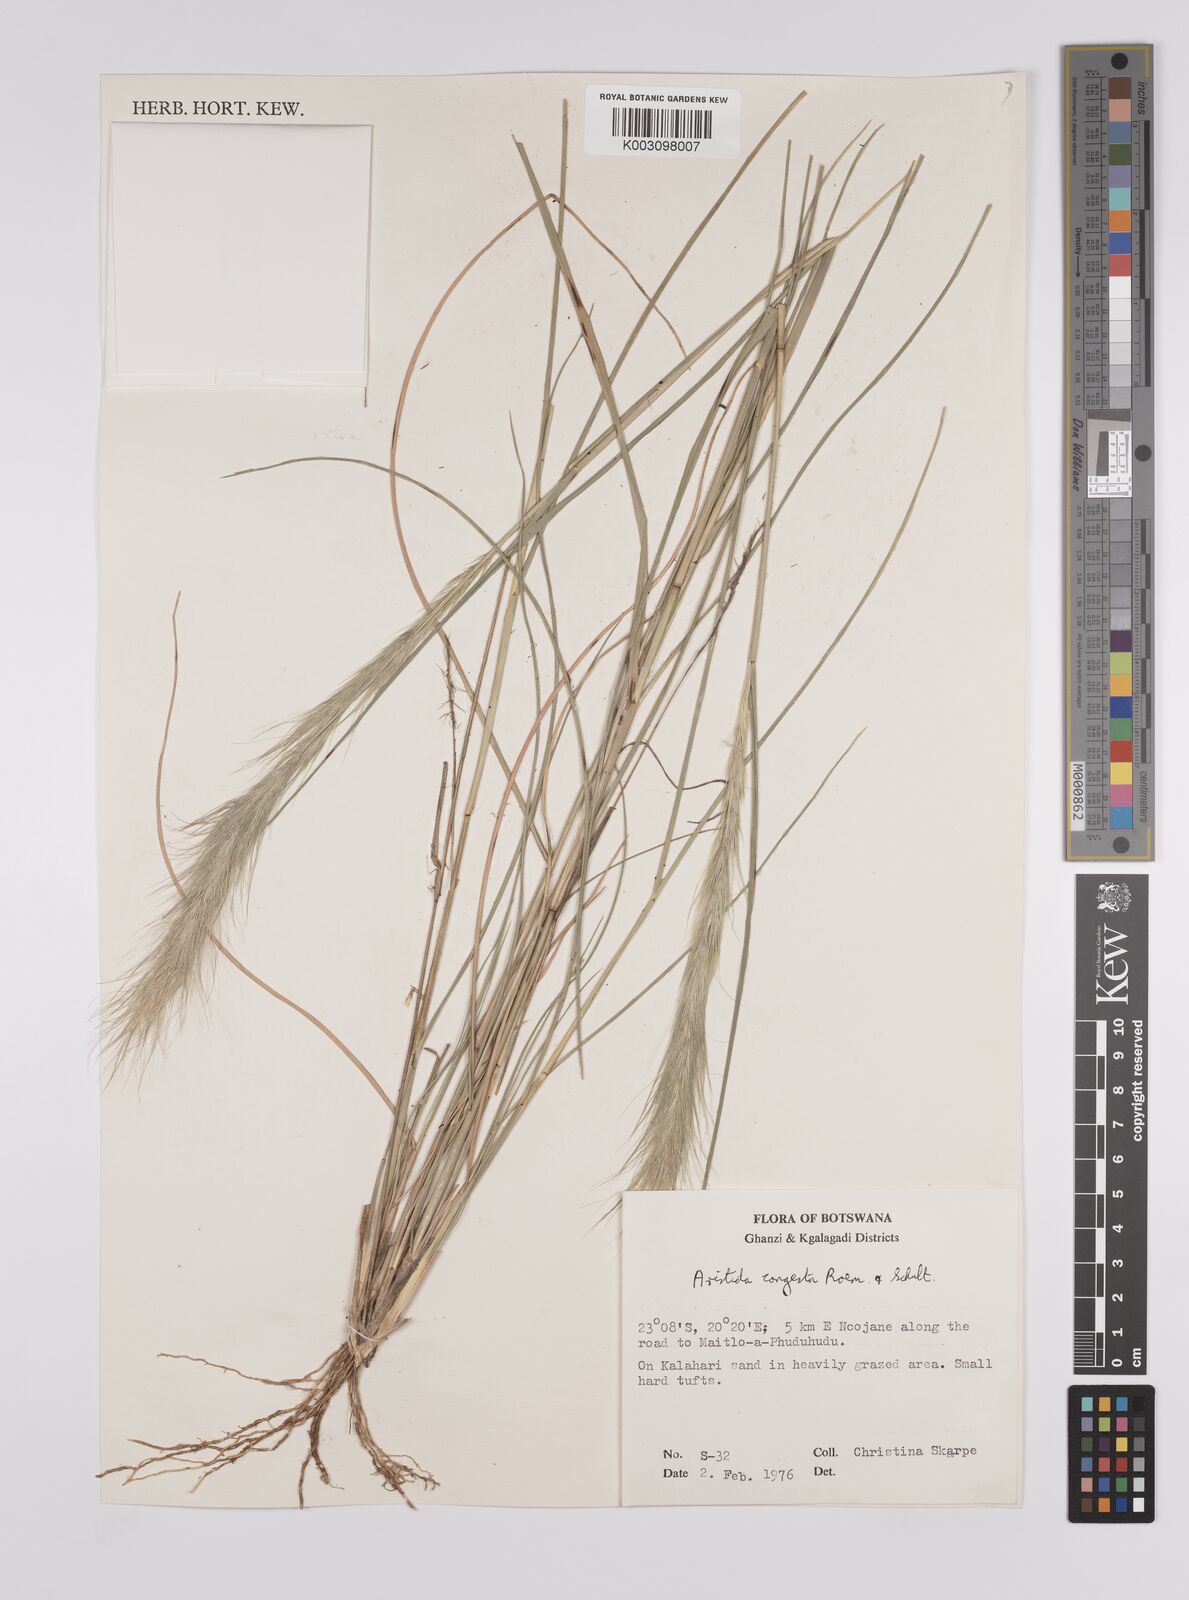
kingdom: Plantae
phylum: Tracheophyta
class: Liliopsida
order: Poales
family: Poaceae
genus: Aristida
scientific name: Aristida congesta
